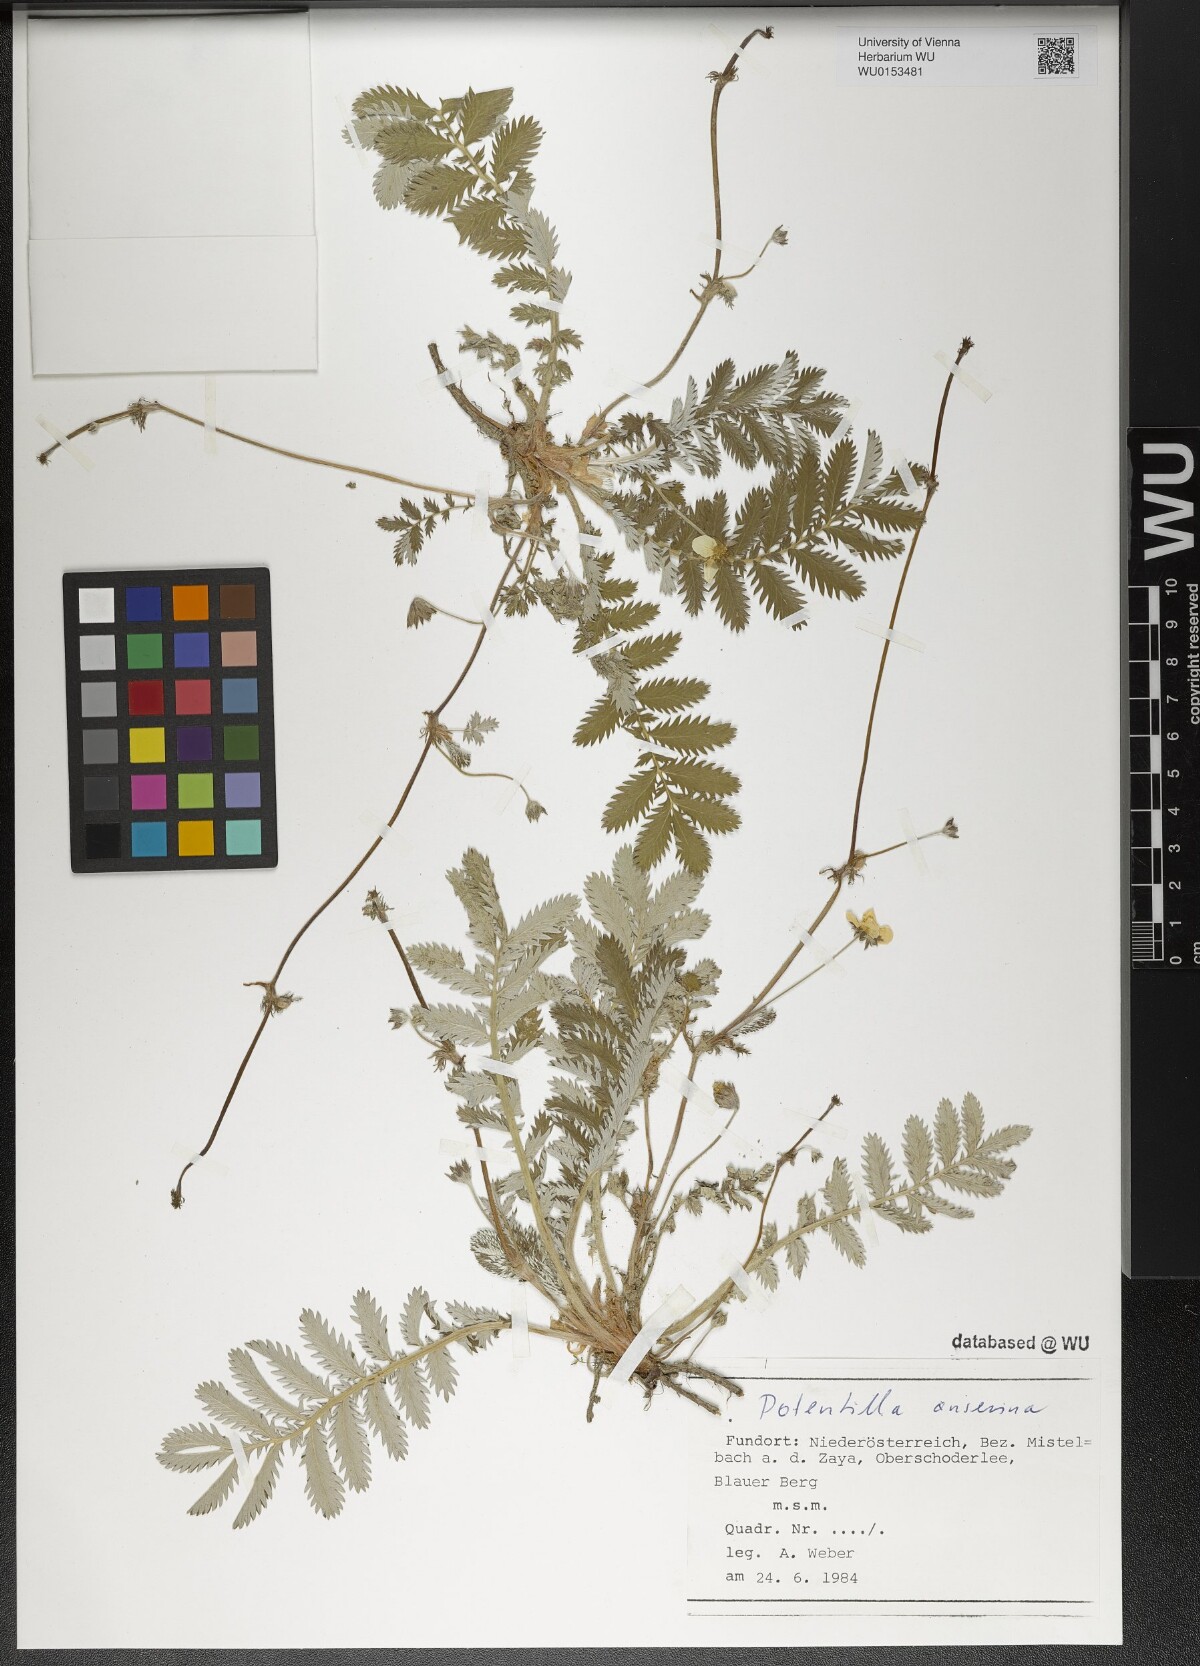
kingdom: Plantae
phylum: Tracheophyta
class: Magnoliopsida
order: Rosales
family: Rosaceae
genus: Argentina
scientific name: Argentina anserina
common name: Common silverweed
